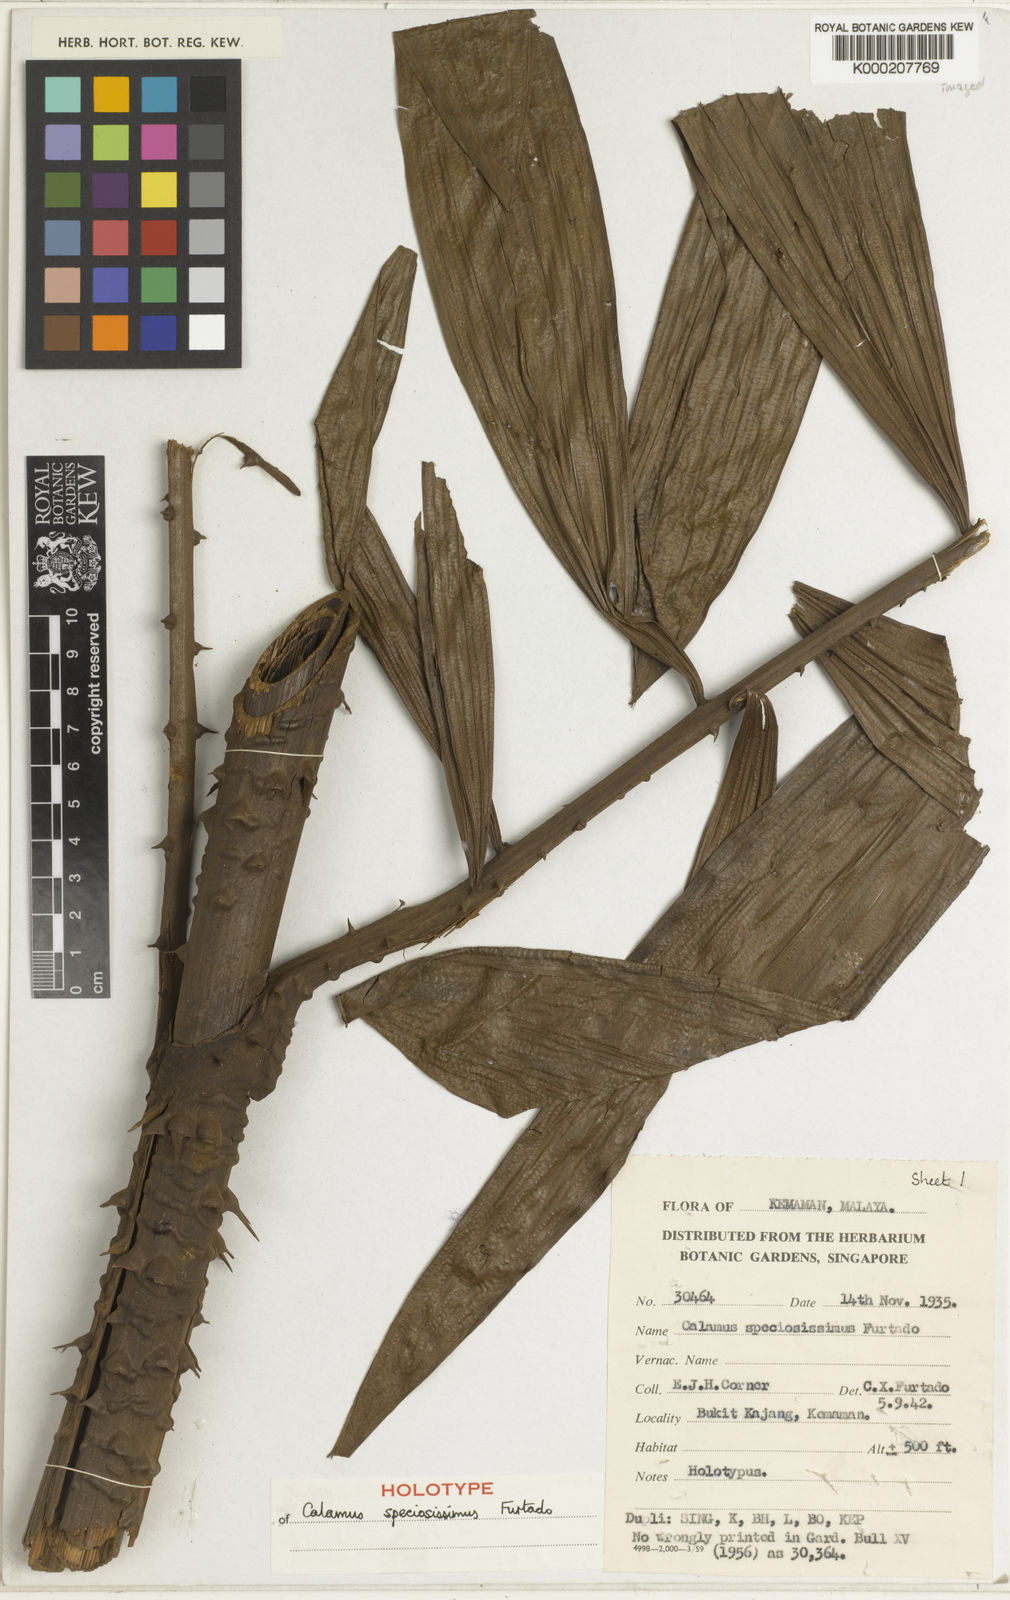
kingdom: Plantae
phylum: Tracheophyta
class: Liliopsida
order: Arecales
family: Arecaceae
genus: Calamus
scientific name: Calamus micranthus
